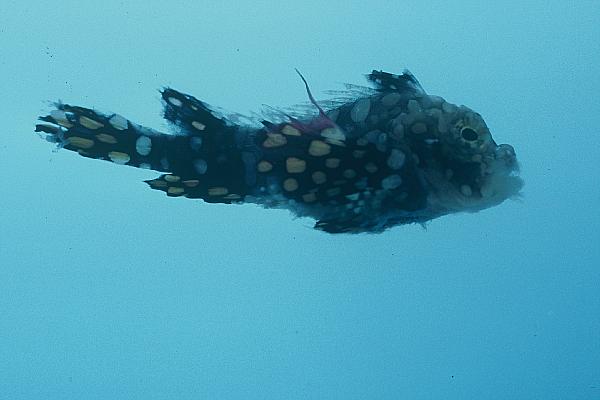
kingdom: Animalia
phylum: Chordata
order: Scorpaeniformes
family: Tetrarogidae
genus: Ablabys
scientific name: Ablabys binotatus
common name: Redskinfish
